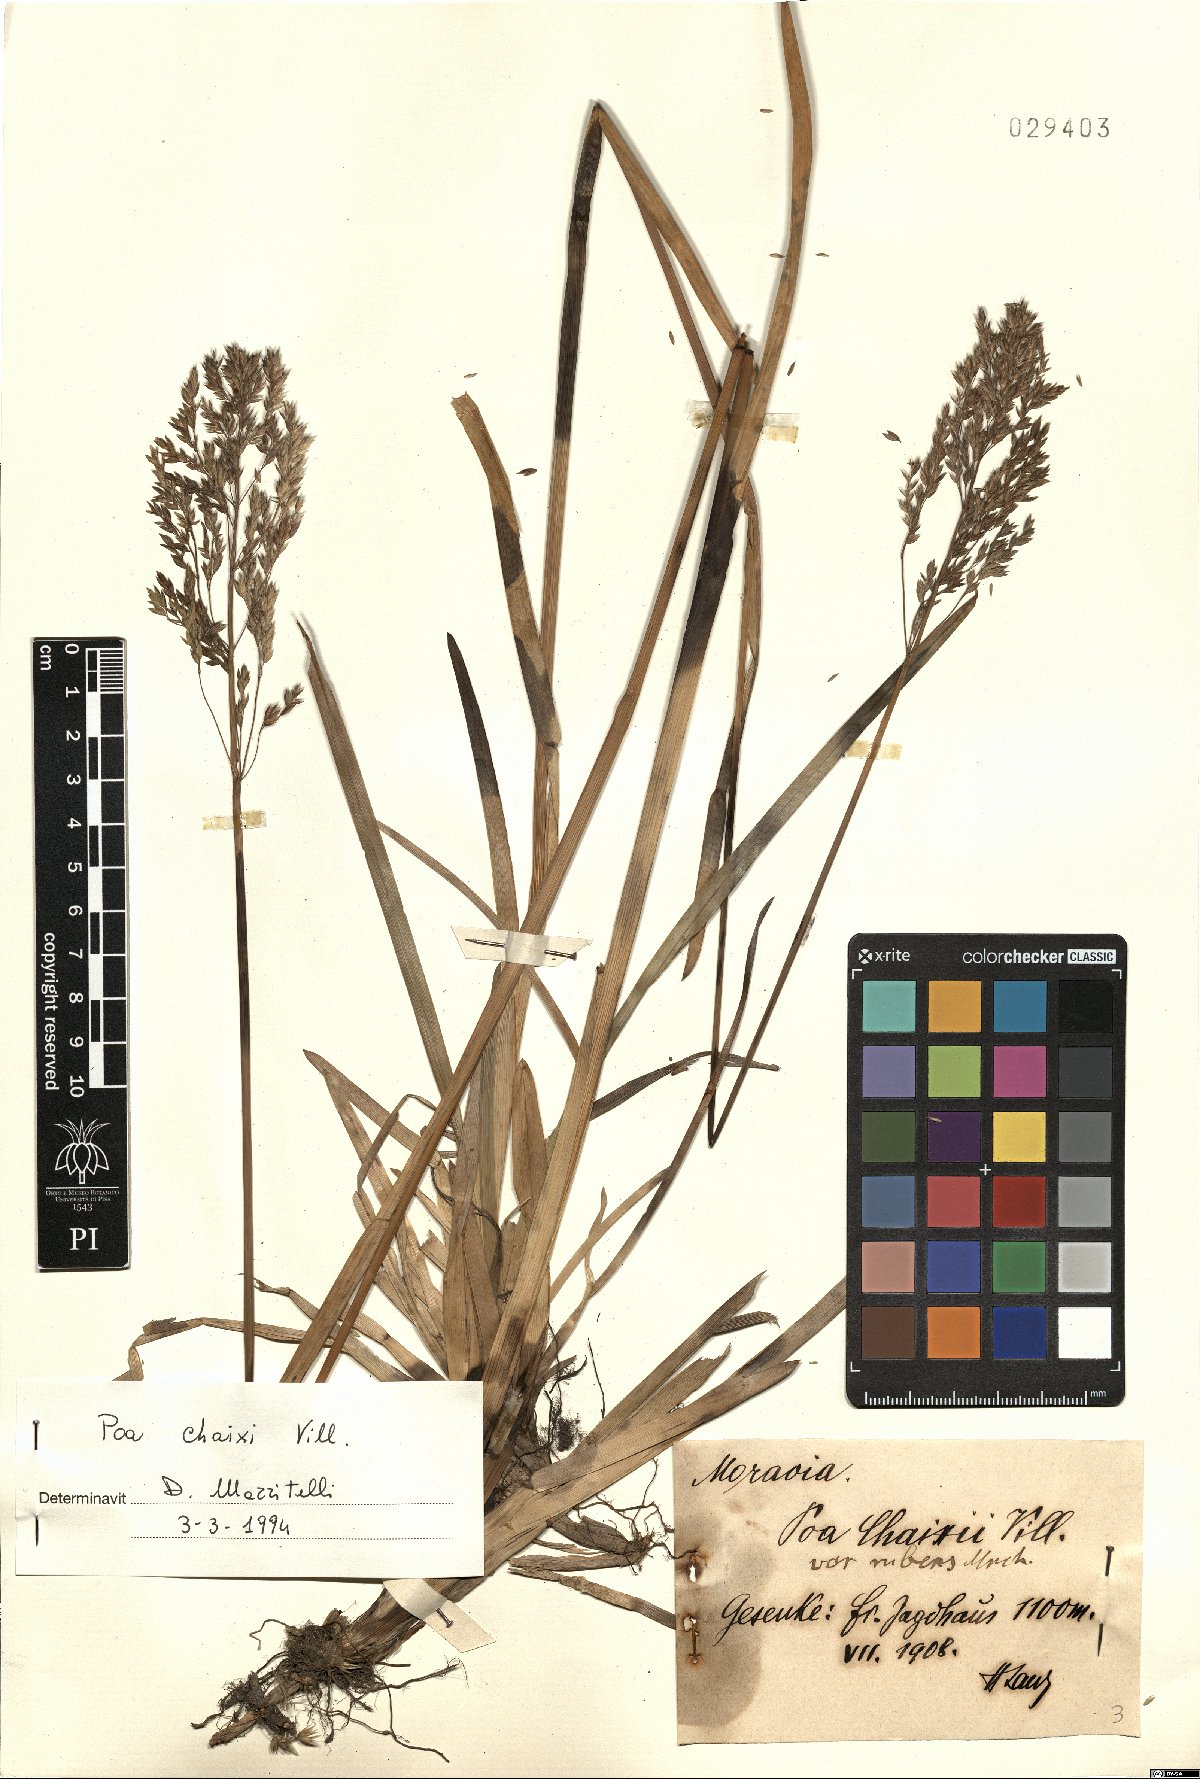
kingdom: Plantae
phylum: Tracheophyta
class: Liliopsida
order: Poales
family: Poaceae
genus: Poa
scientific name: Poa chaixii
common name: Broad-leaved meadow-grass
